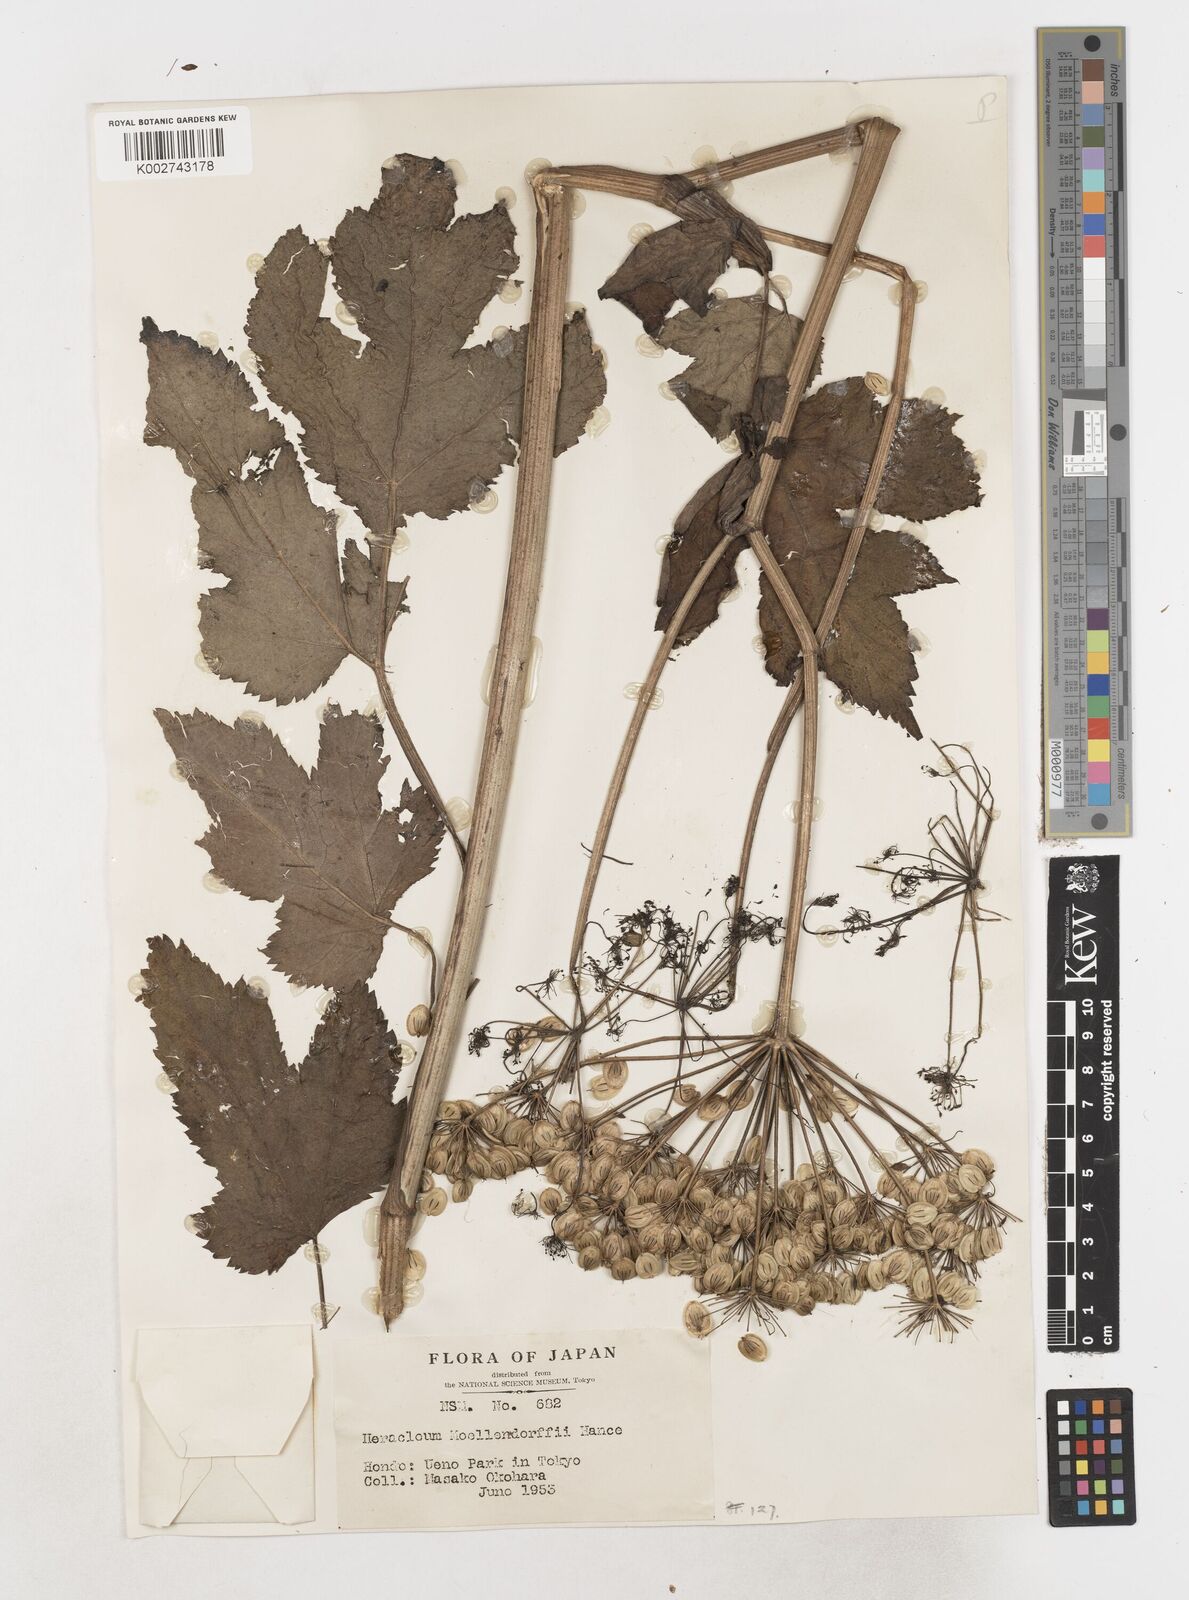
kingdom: Plantae
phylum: Tracheophyta
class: Magnoliopsida
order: Apiales
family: Apiaceae
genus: Heracleum
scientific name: Heracleum moellendorffii
